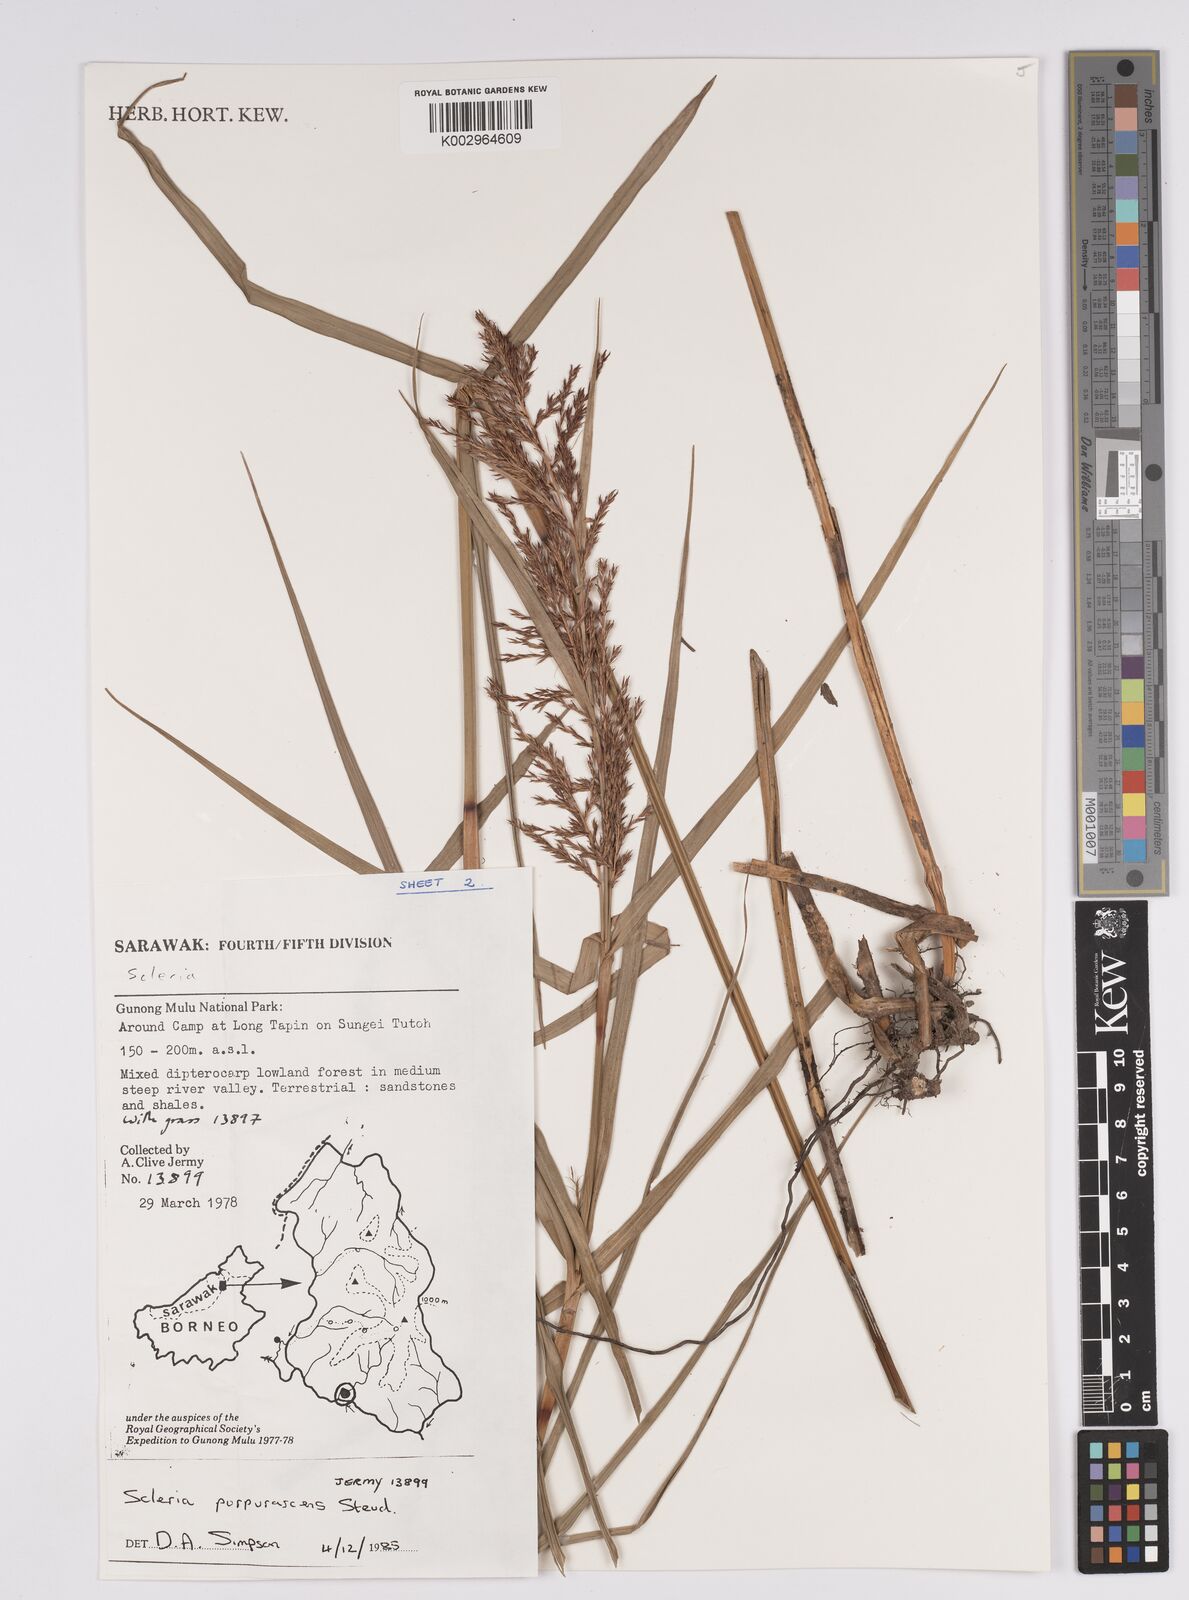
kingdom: Plantae
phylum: Tracheophyta
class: Liliopsida
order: Poales
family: Cyperaceae
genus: Scleria
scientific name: Scleria purpurascens
